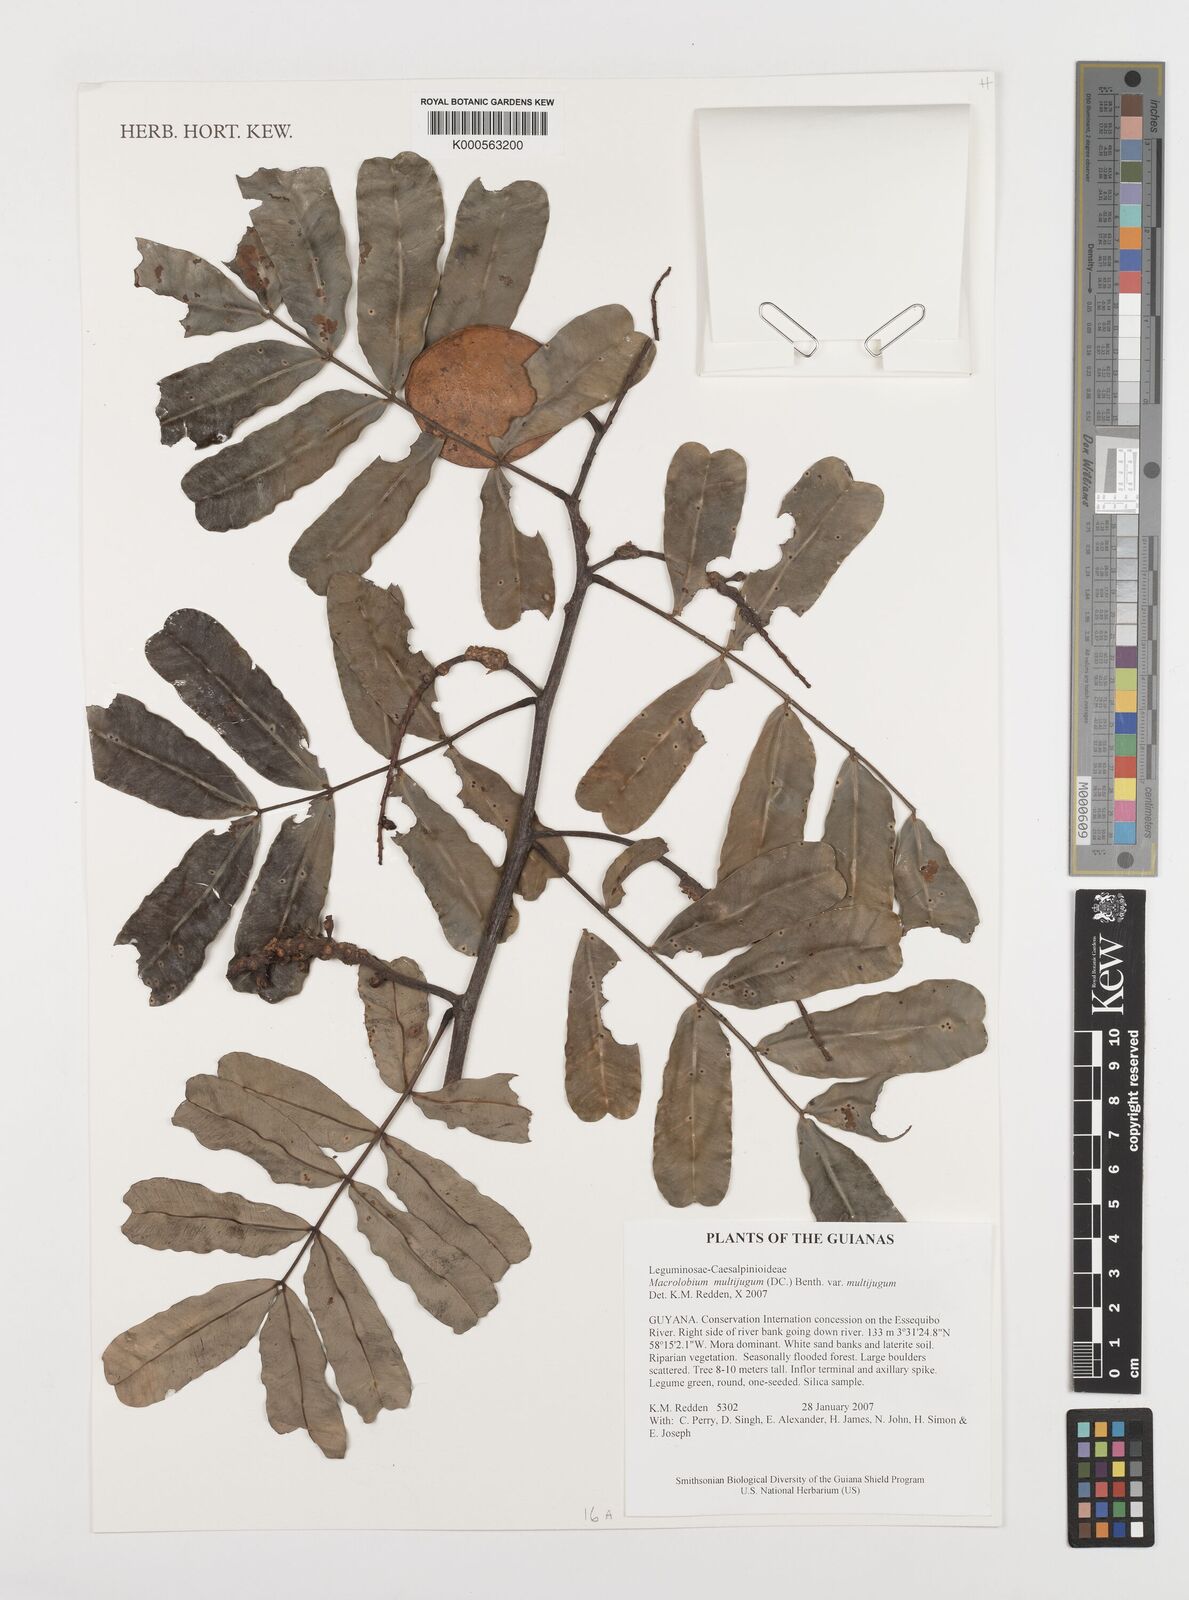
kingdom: Plantae
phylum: Tracheophyta
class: Magnoliopsida
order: Fabales
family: Fabaceae
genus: Macrolobium
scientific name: Macrolobium multijugum
